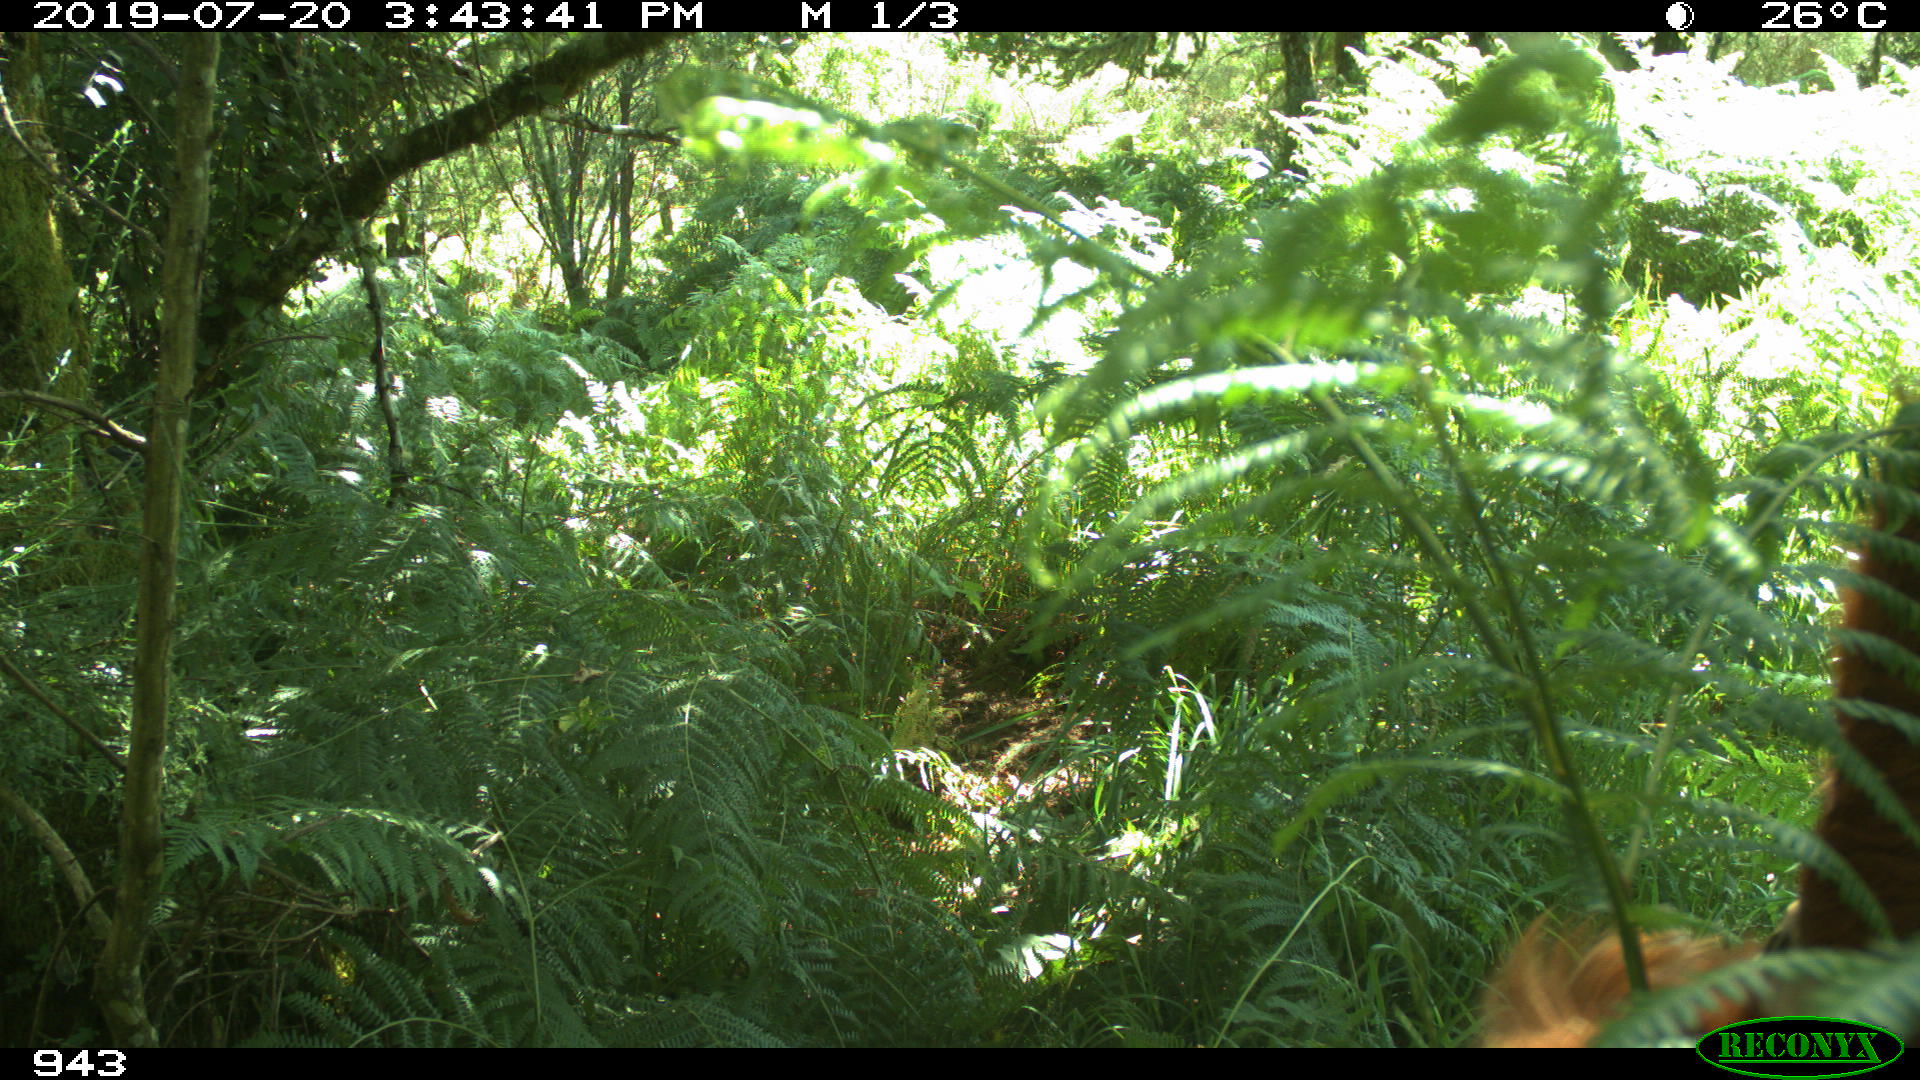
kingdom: Animalia
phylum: Chordata
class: Mammalia
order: Artiodactyla
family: Bovidae
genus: Bos
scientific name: Bos taurus
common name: Domesticated cattle
